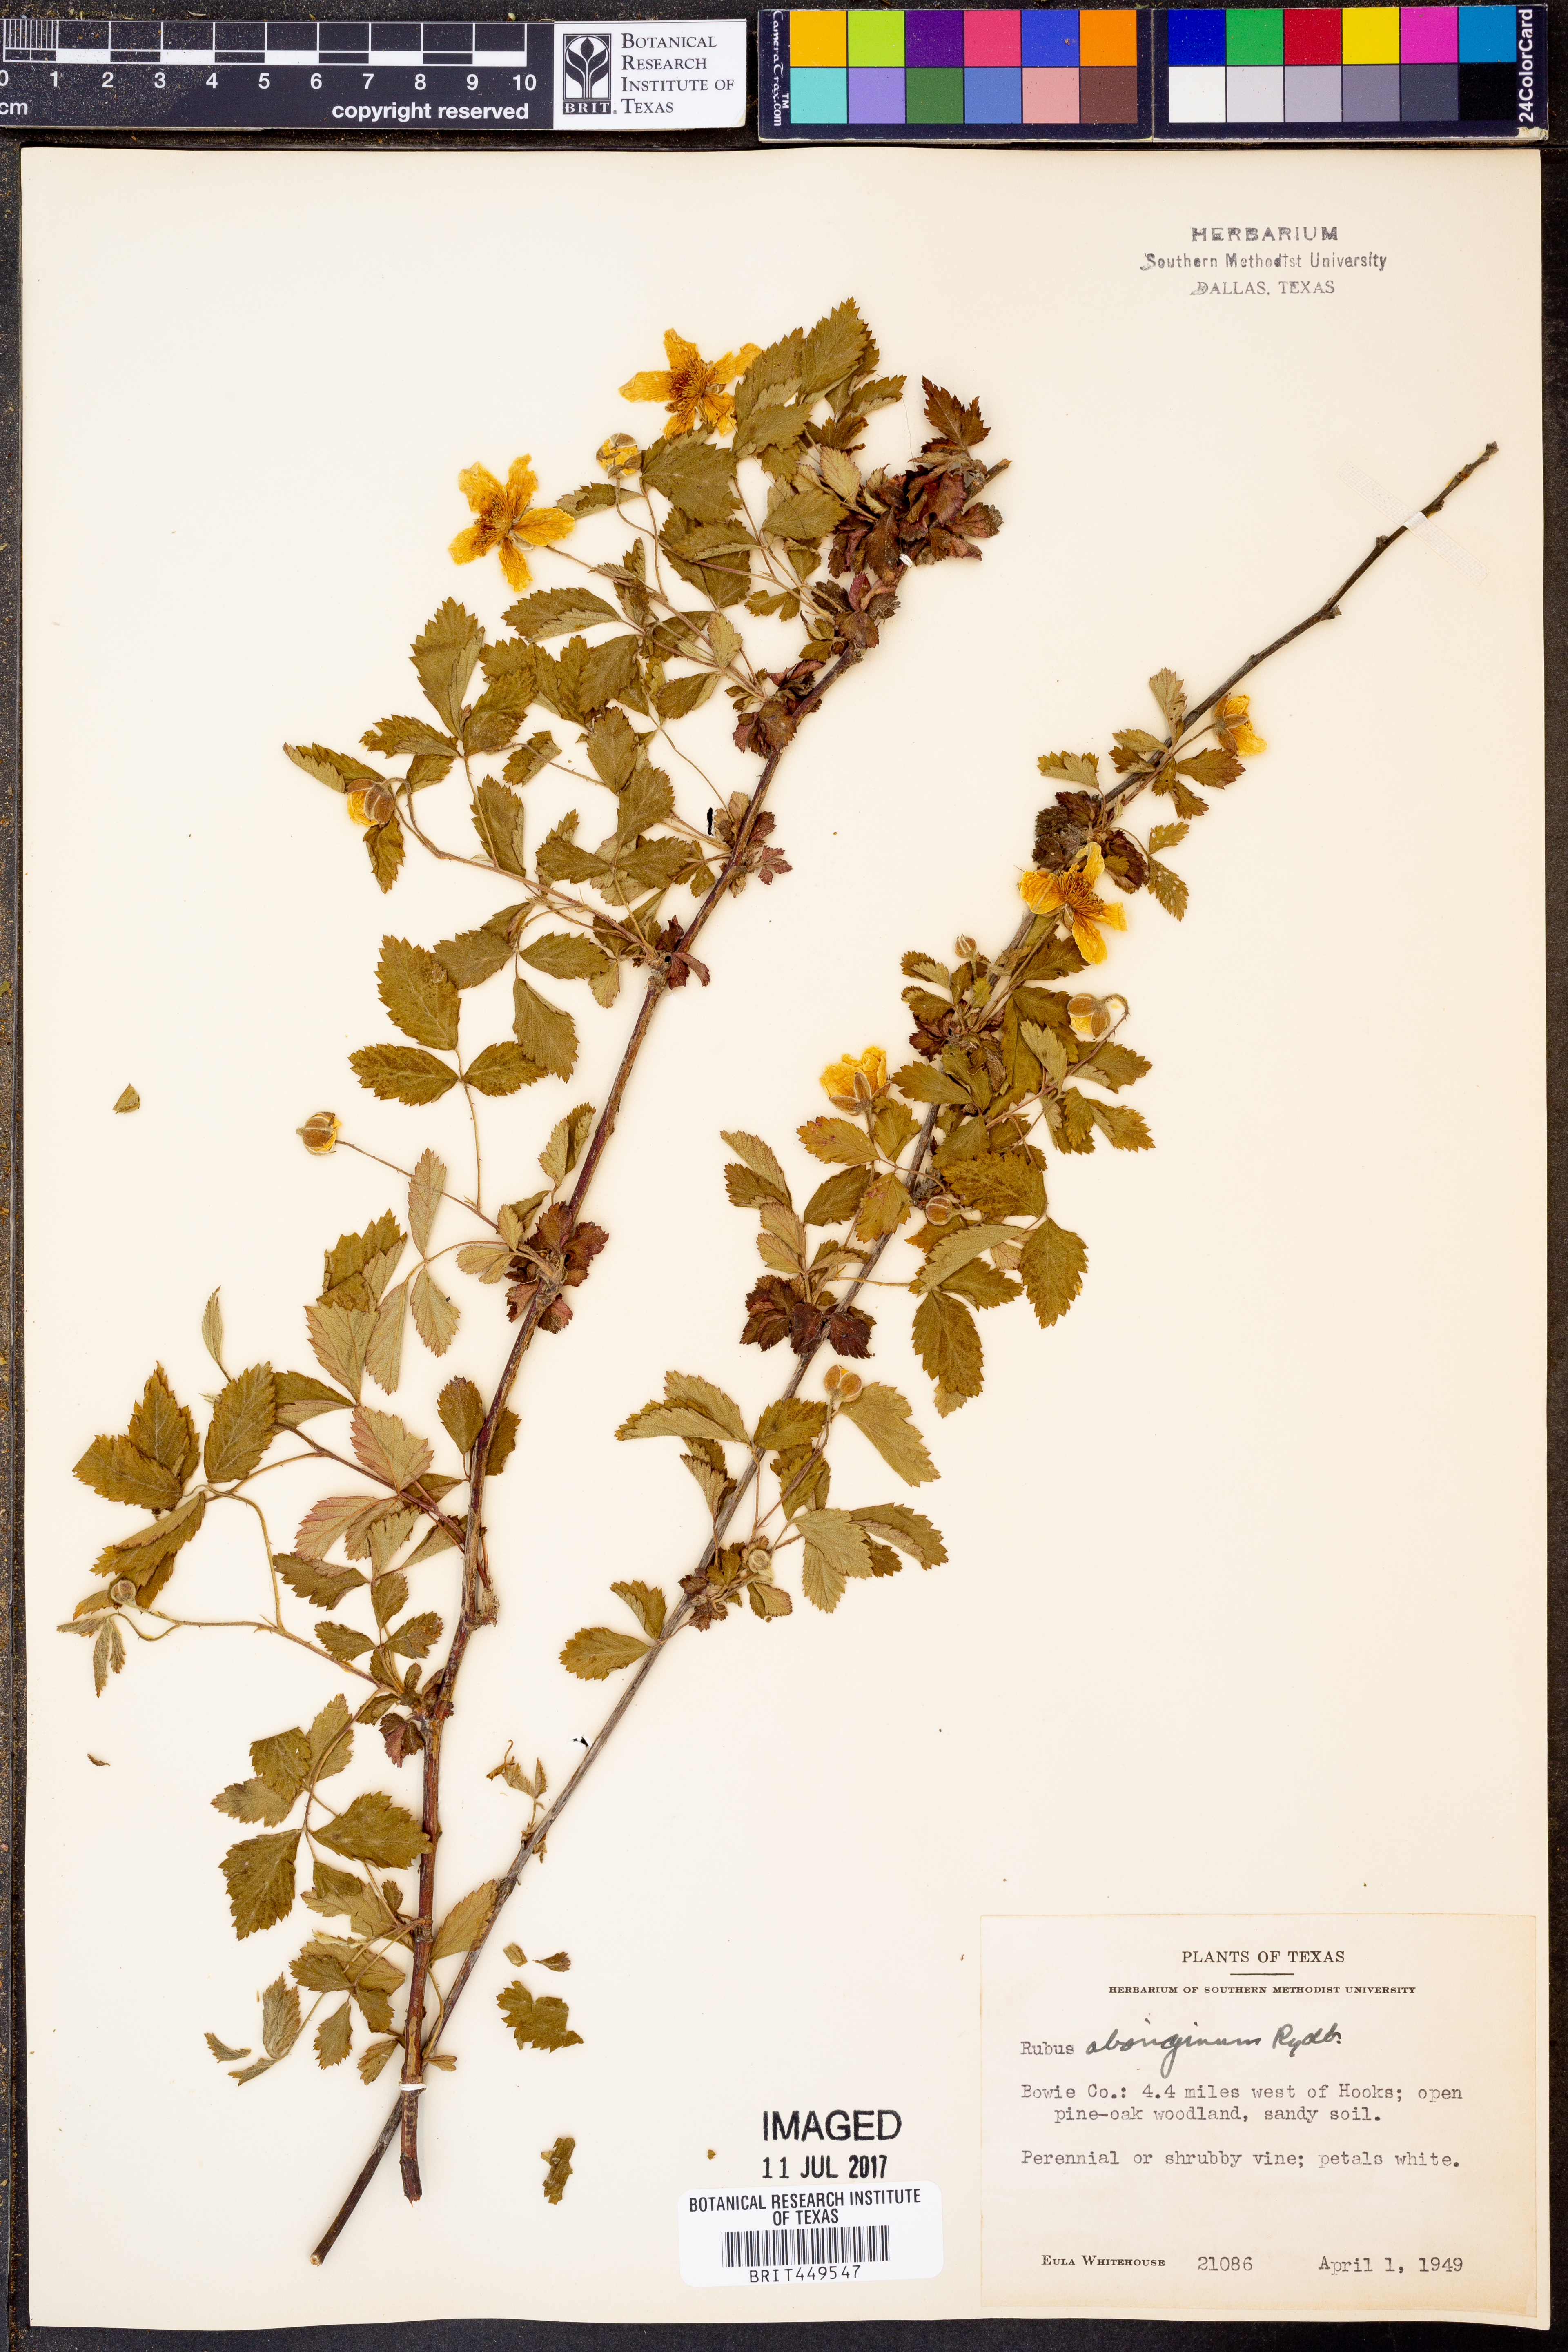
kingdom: Plantae
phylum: Tracheophyta
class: Magnoliopsida
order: Rosales
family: Rosaceae
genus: Rubus
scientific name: Rubus aboriginum
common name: Mayes dewberry
